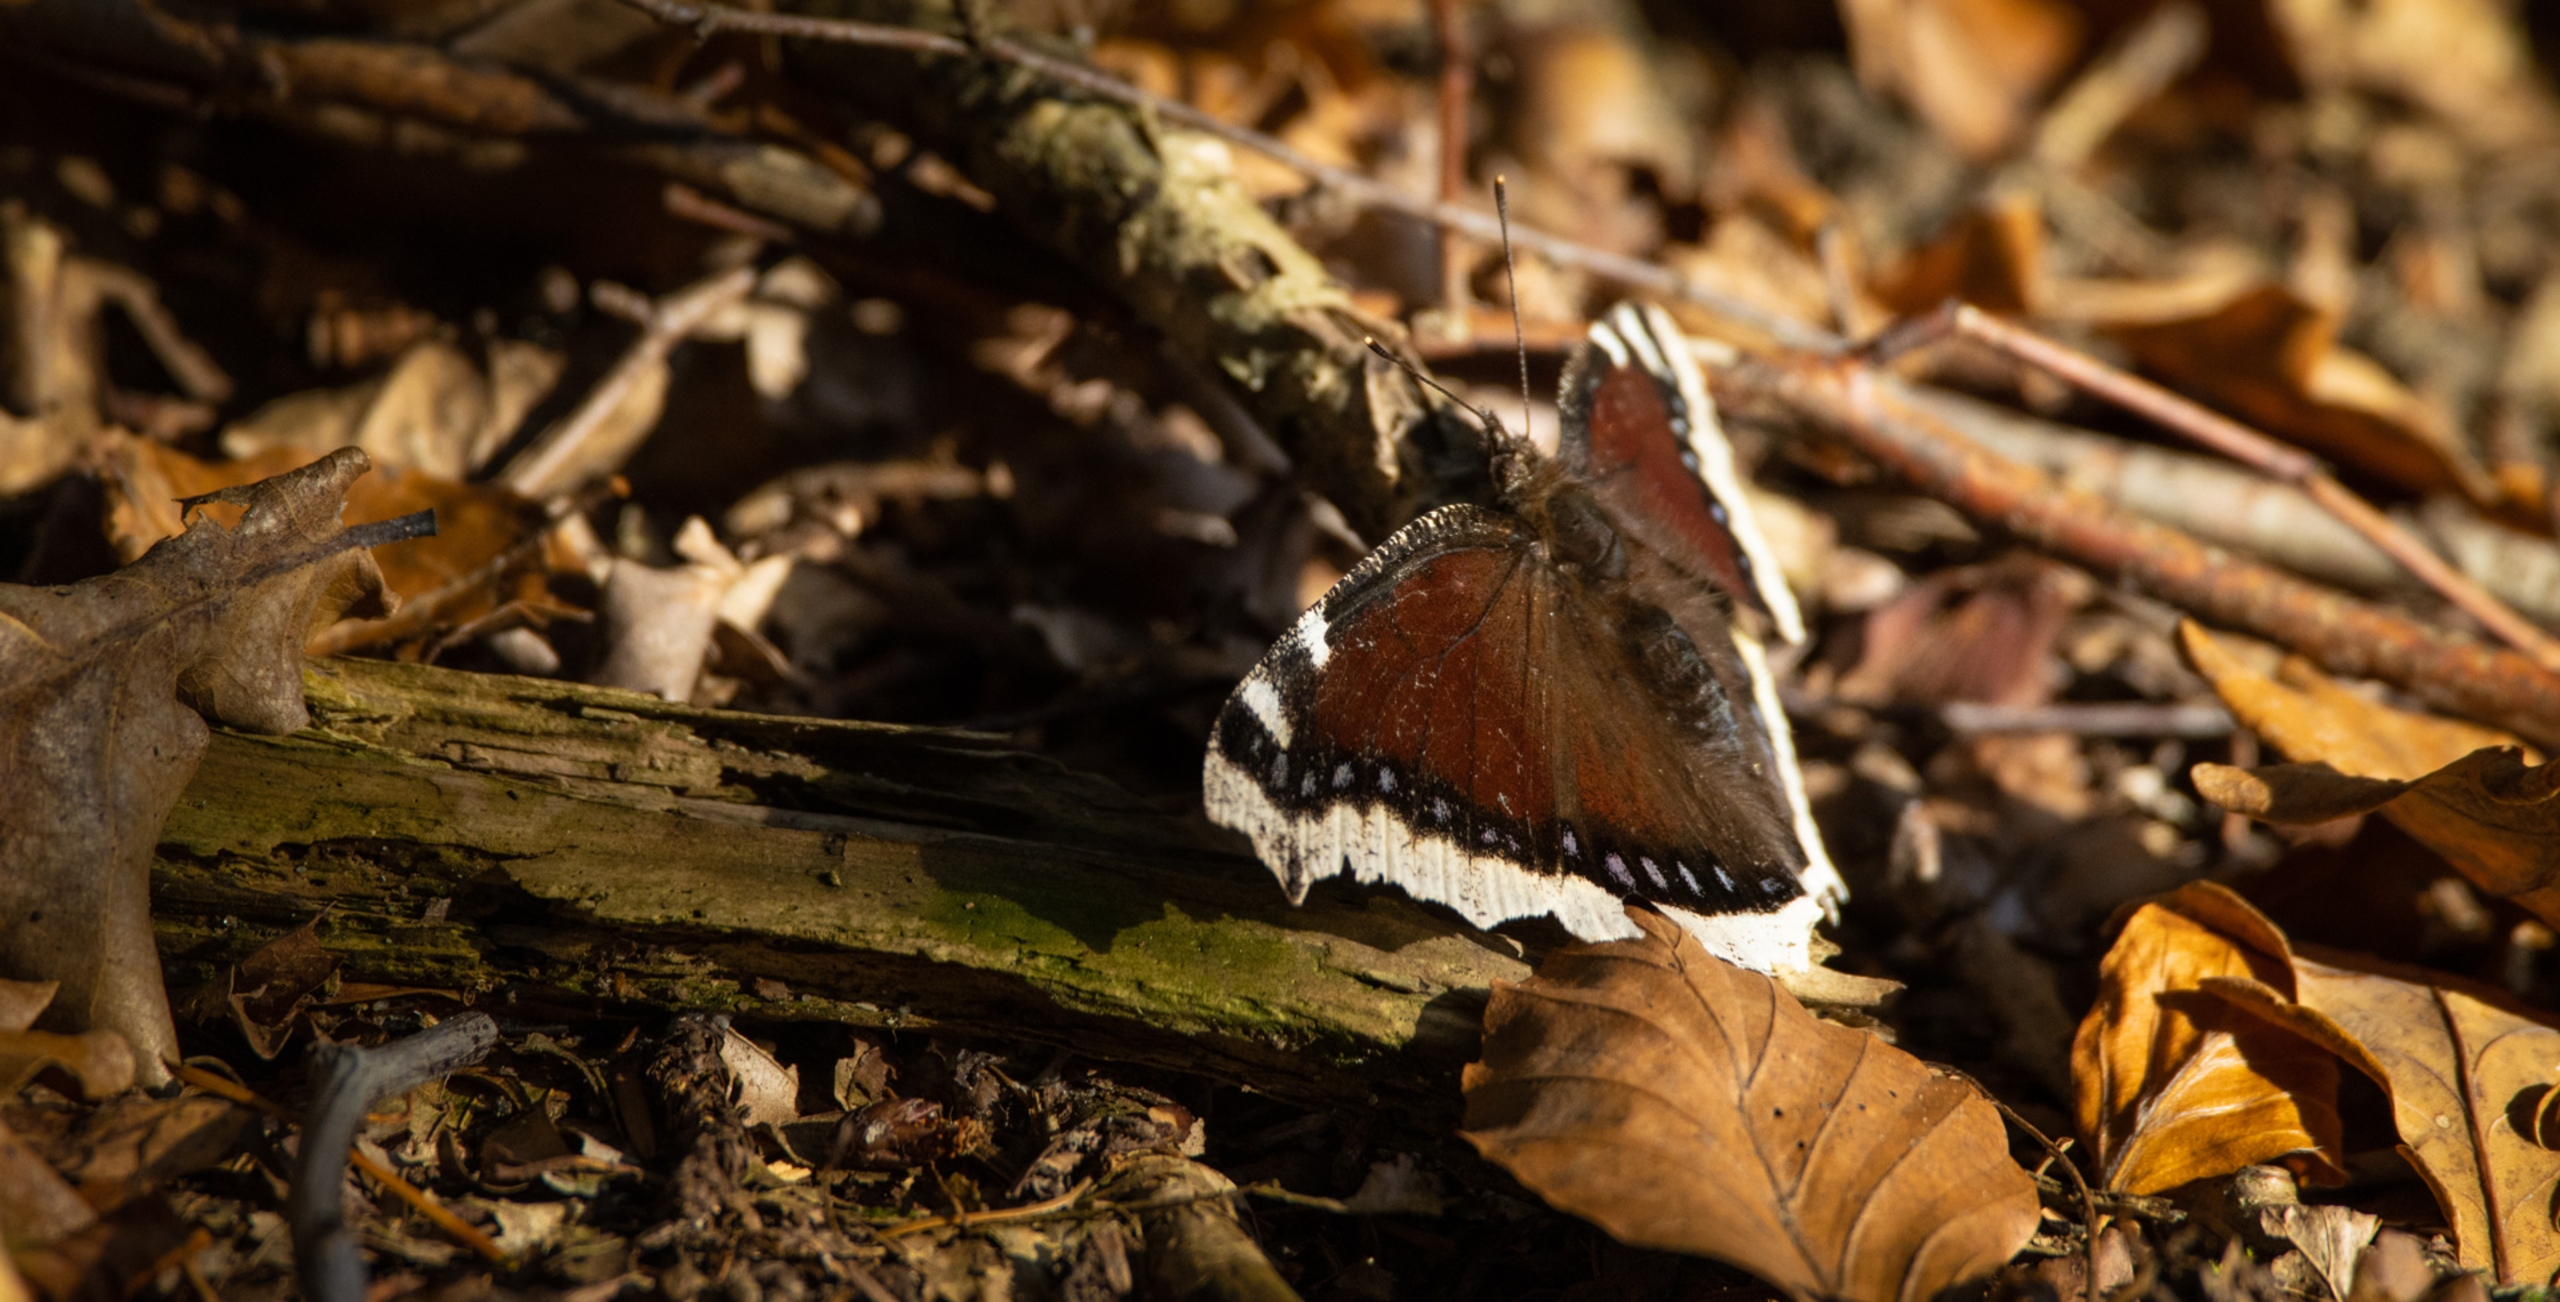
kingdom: Animalia
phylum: Arthropoda
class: Insecta
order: Lepidoptera
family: Nymphalidae
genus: Nymphalis
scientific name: Nymphalis antiopa
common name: Sørgekåbe
